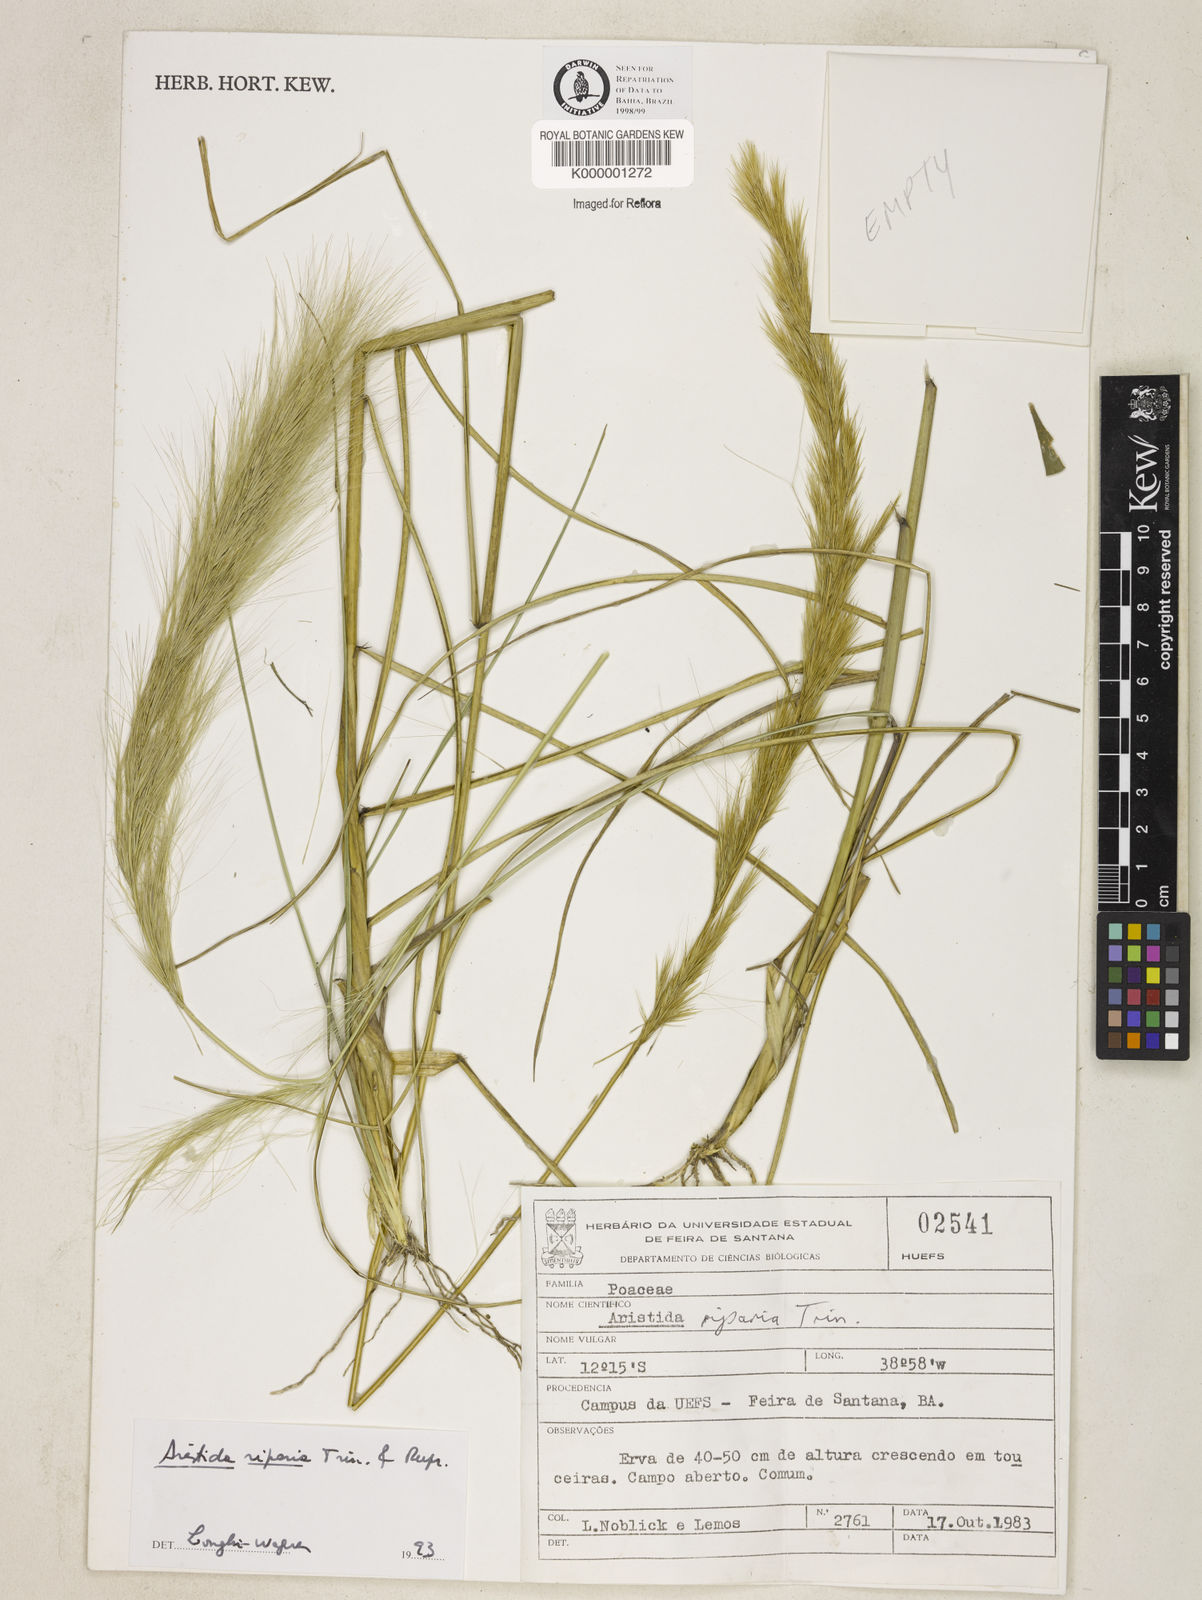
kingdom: Plantae
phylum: Tracheophyta
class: Liliopsida
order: Poales
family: Poaceae
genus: Aristida
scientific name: Aristida riparia
